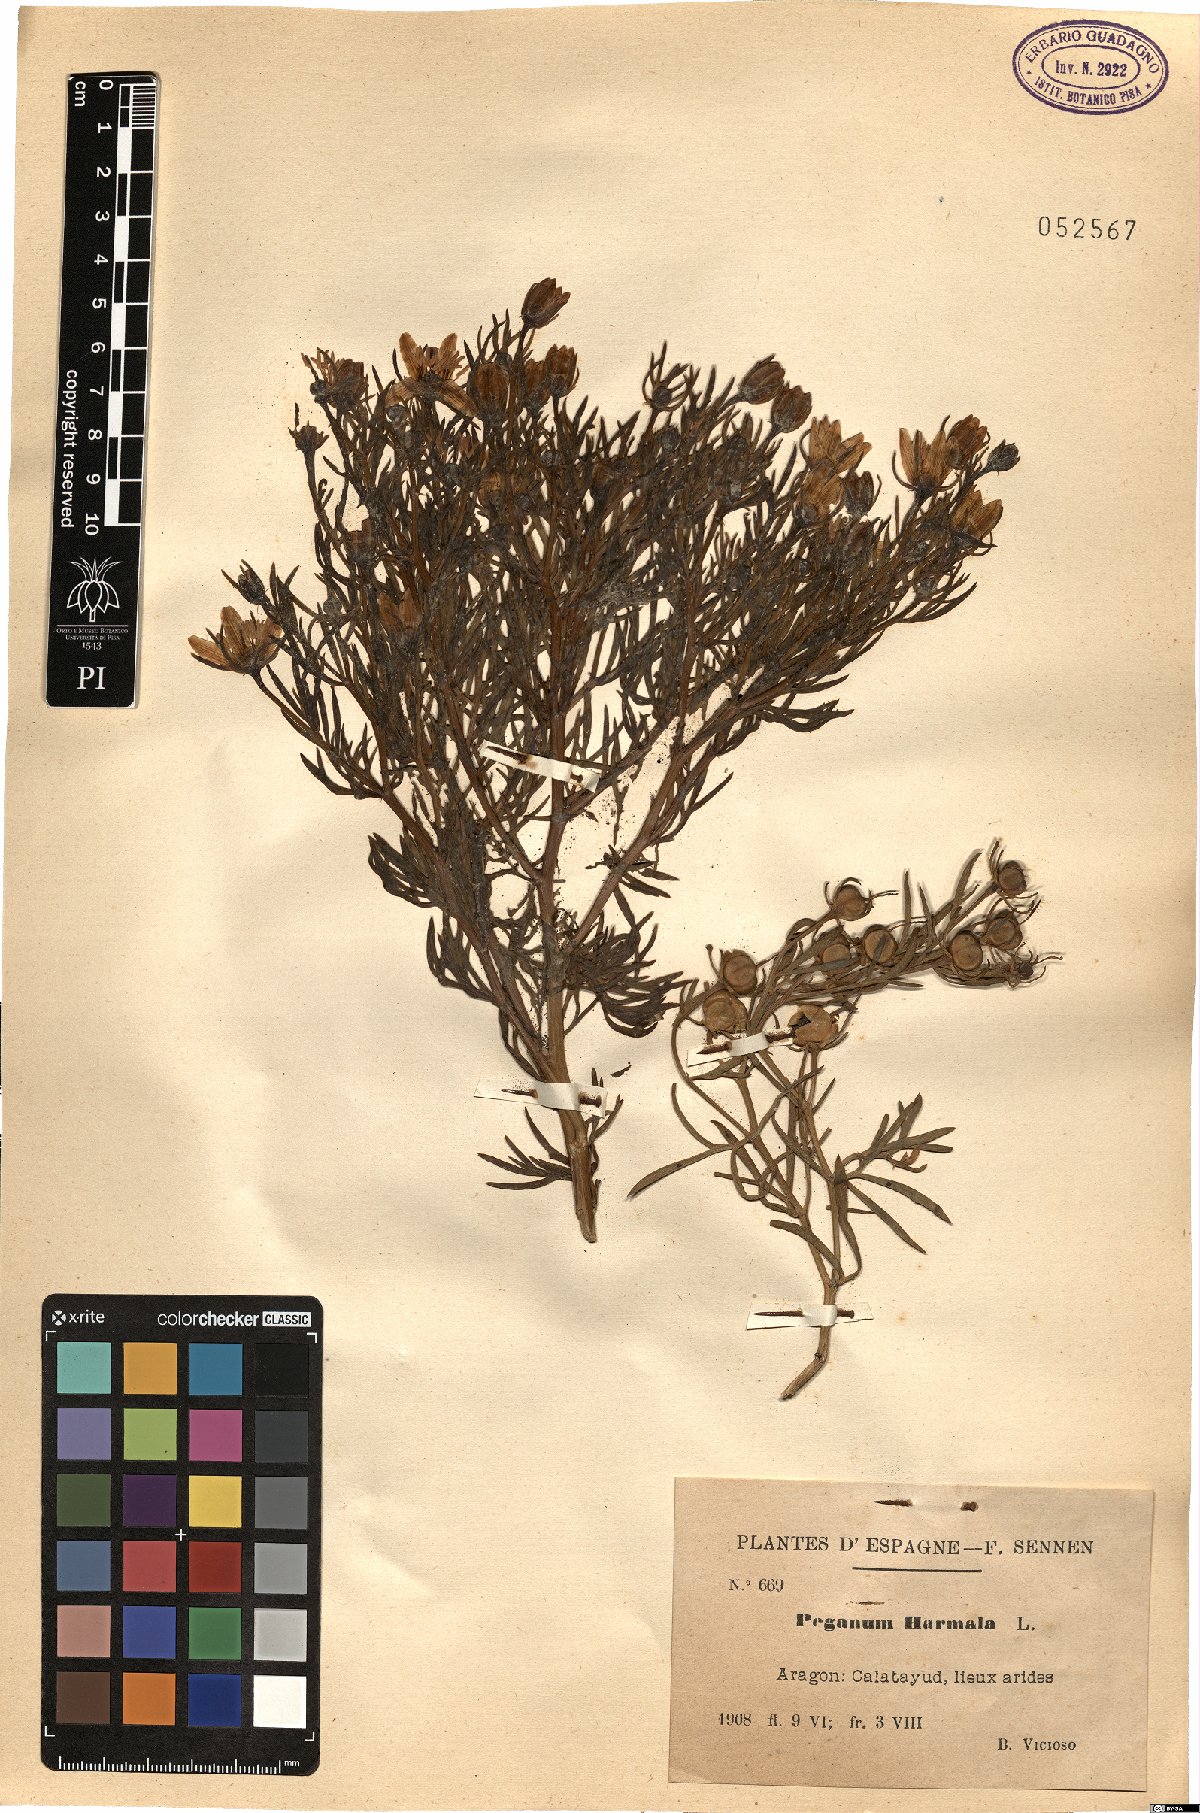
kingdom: Plantae
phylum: Tracheophyta
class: Magnoliopsida
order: Sapindales
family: Tetradiclidaceae
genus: Peganum
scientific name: Peganum harmala
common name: Harmal peganum
